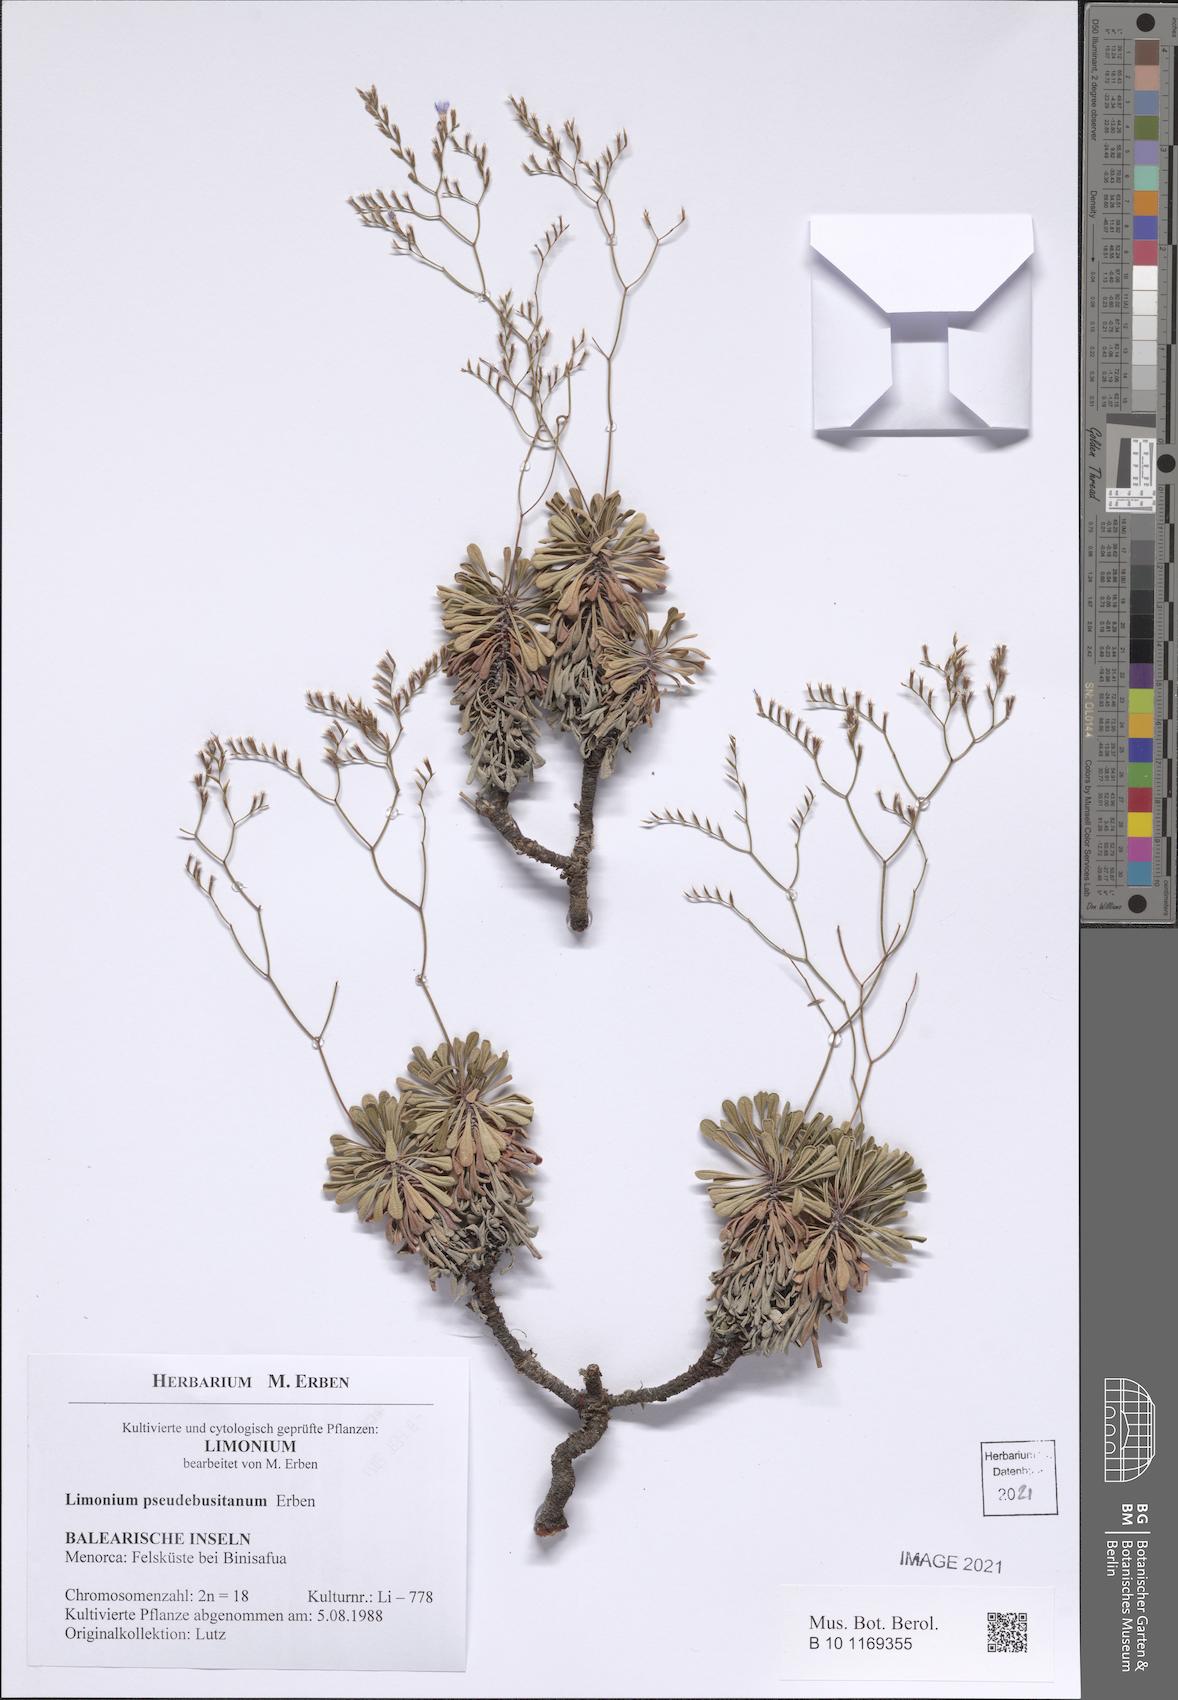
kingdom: Plantae
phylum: Tracheophyta
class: Magnoliopsida
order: Caryophyllales
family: Plumbaginaceae
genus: Limonium
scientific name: Limonium pseudebusitanum
